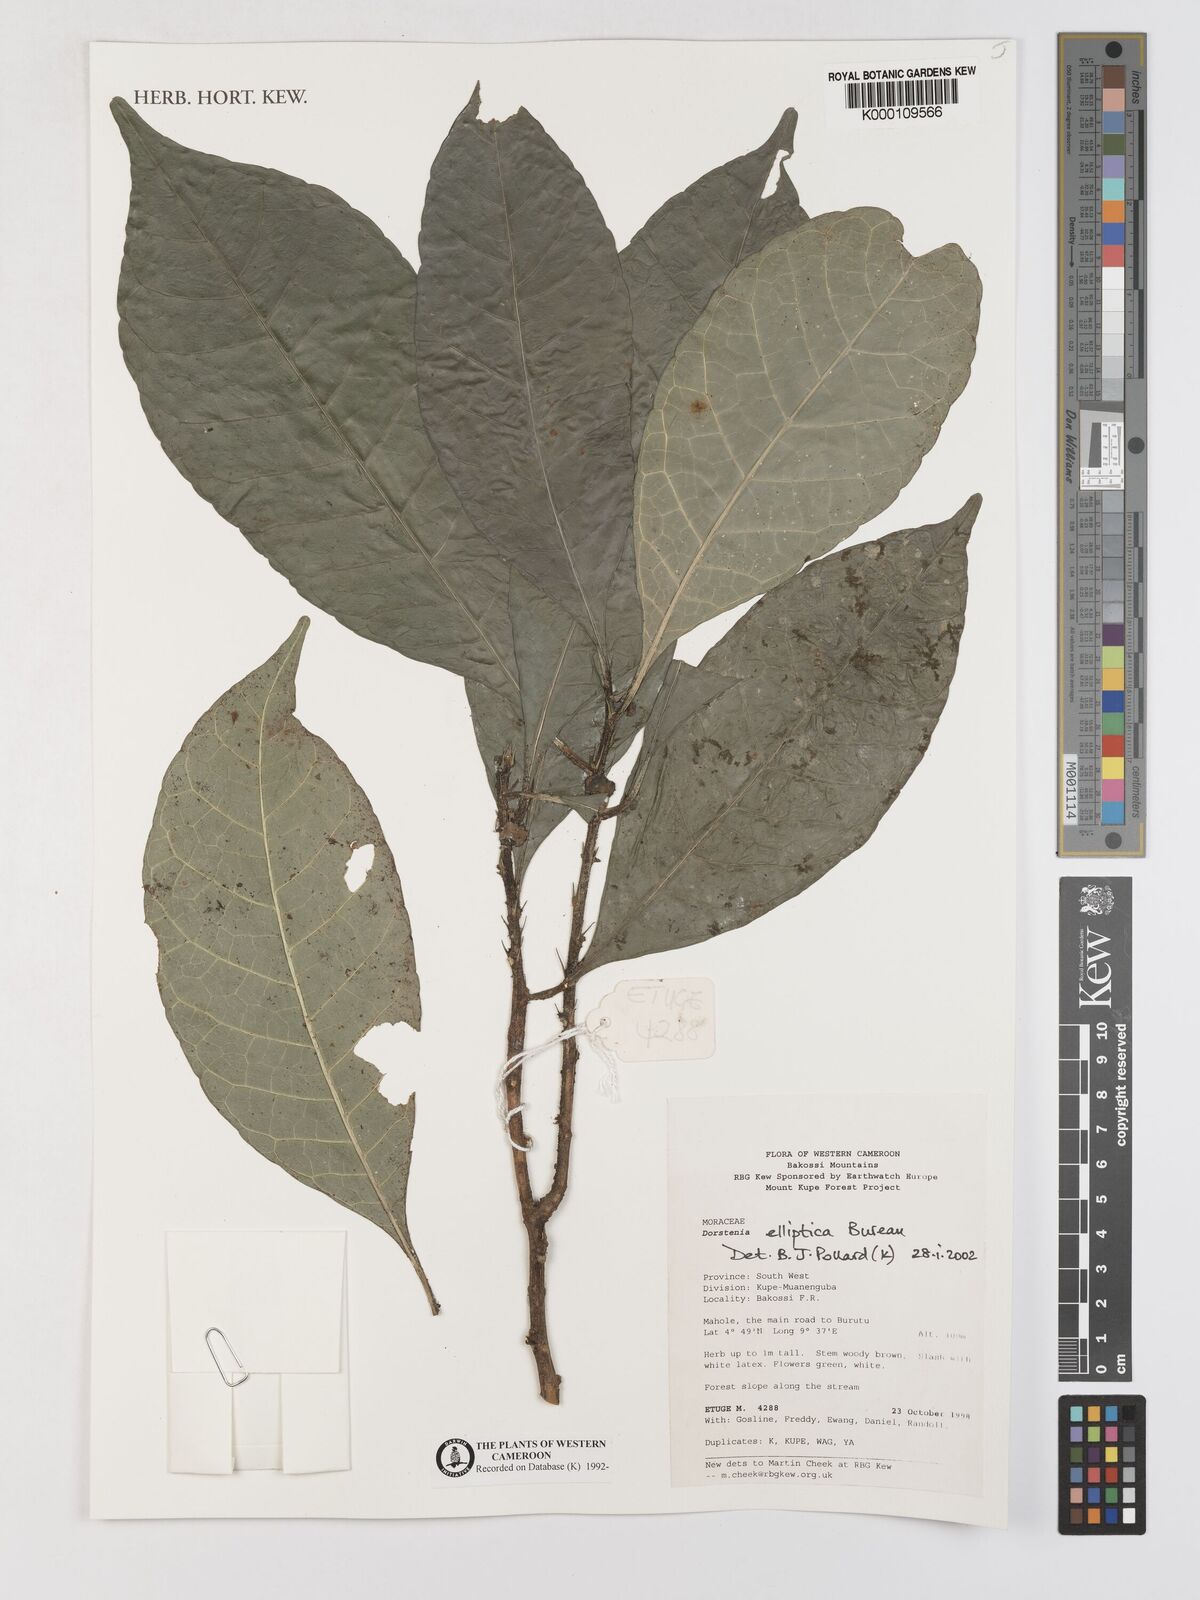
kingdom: Plantae
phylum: Tracheophyta
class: Magnoliopsida
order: Rosales
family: Moraceae
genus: Dorstenia
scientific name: Dorstenia elliptica
